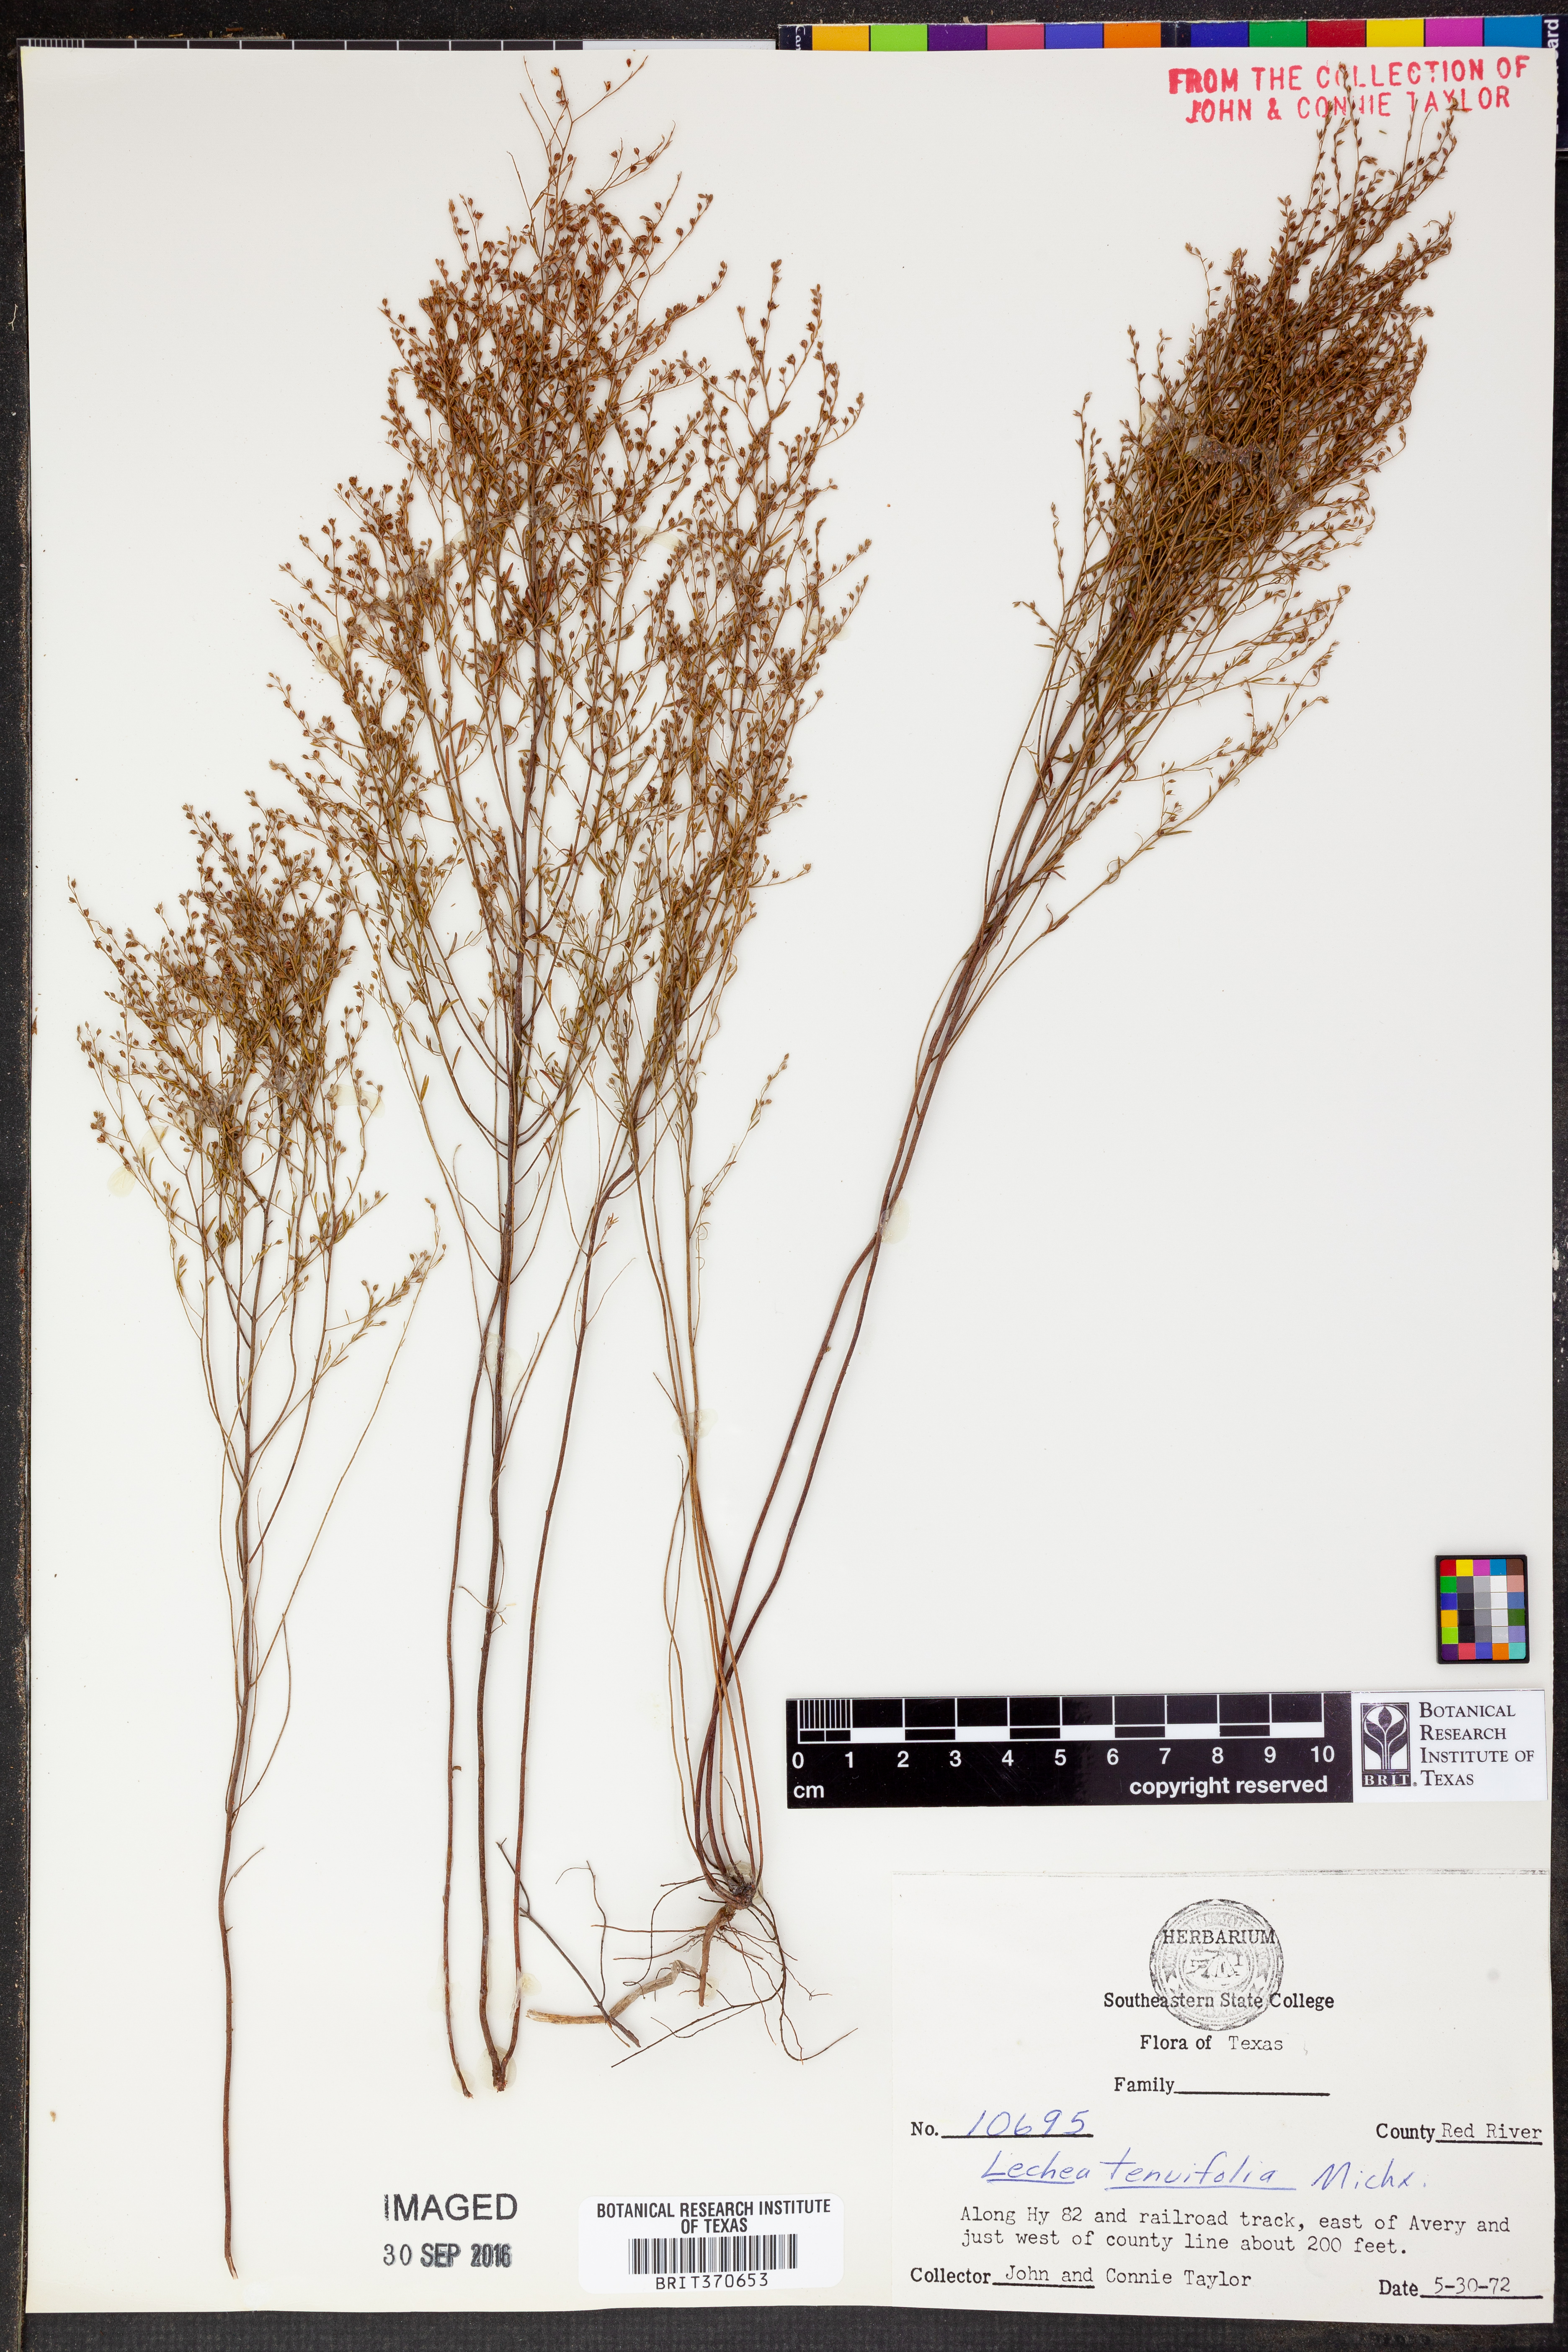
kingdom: Plantae
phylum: Tracheophyta
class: Magnoliopsida
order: Malvales
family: Cistaceae
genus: Lechea
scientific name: Lechea tenuifolia
